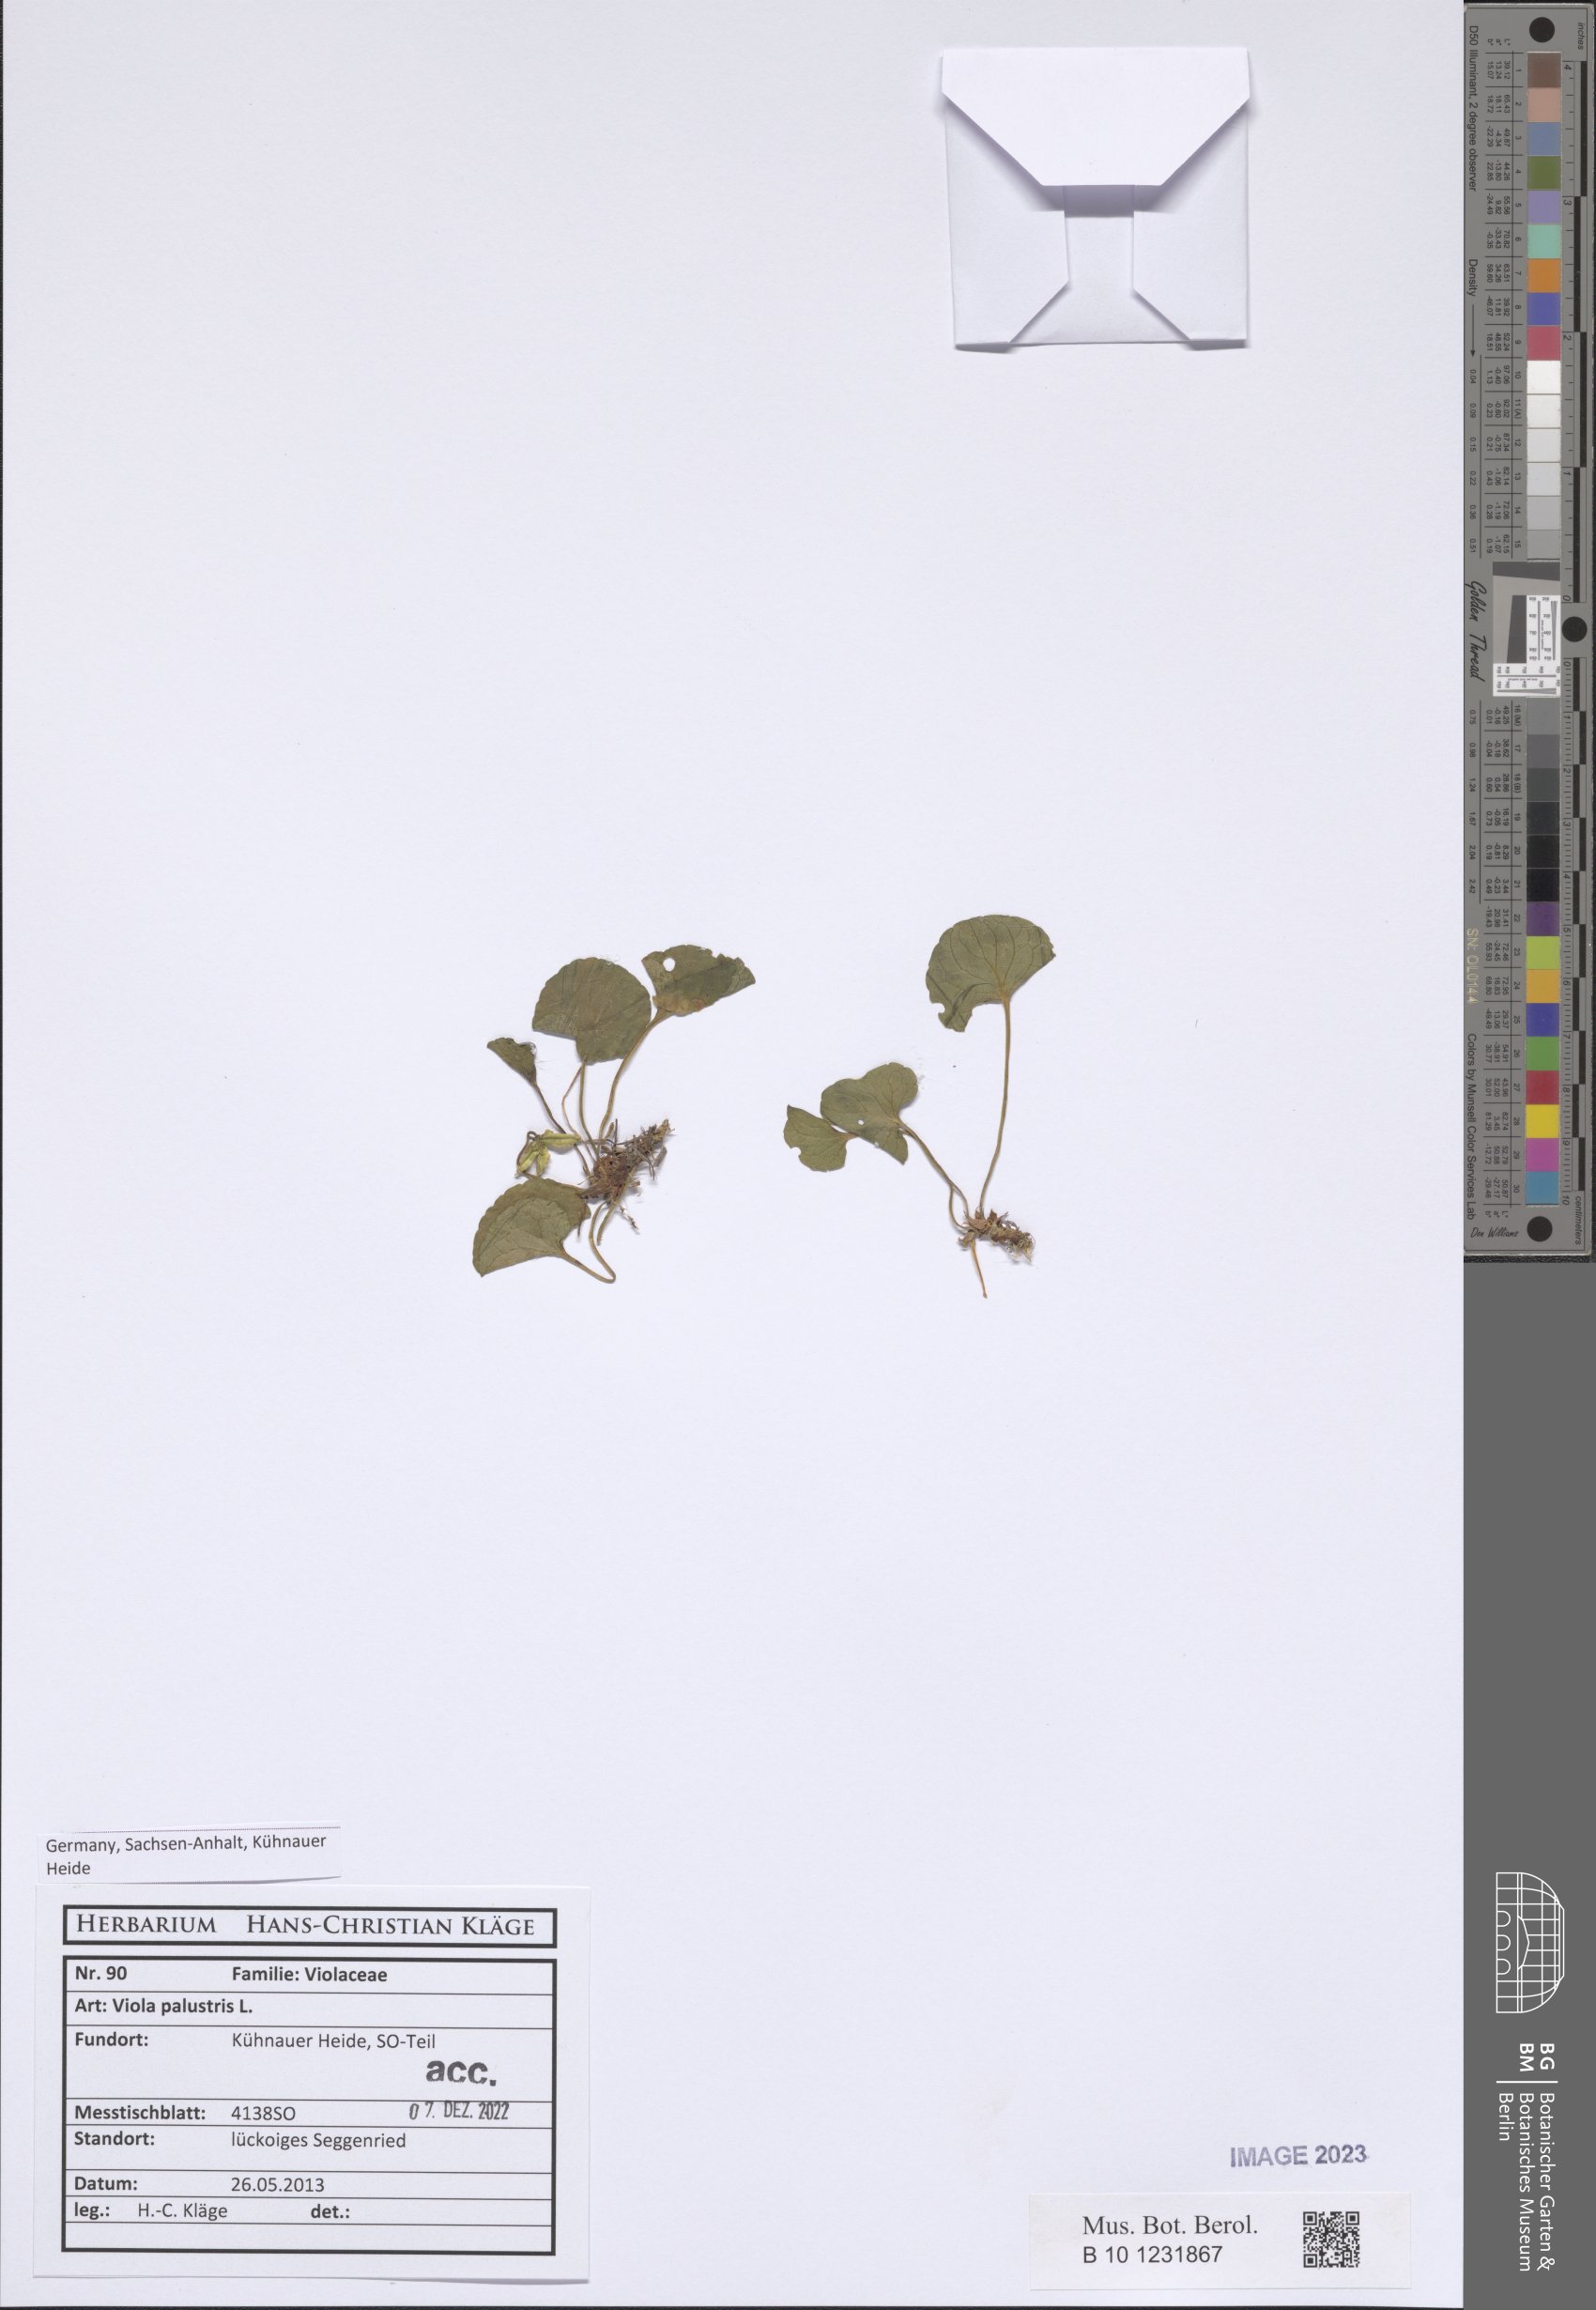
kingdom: Plantae
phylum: Tracheophyta
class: Magnoliopsida
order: Malpighiales
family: Violaceae
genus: Viola
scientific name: Viola palustris
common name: Marsh violet
